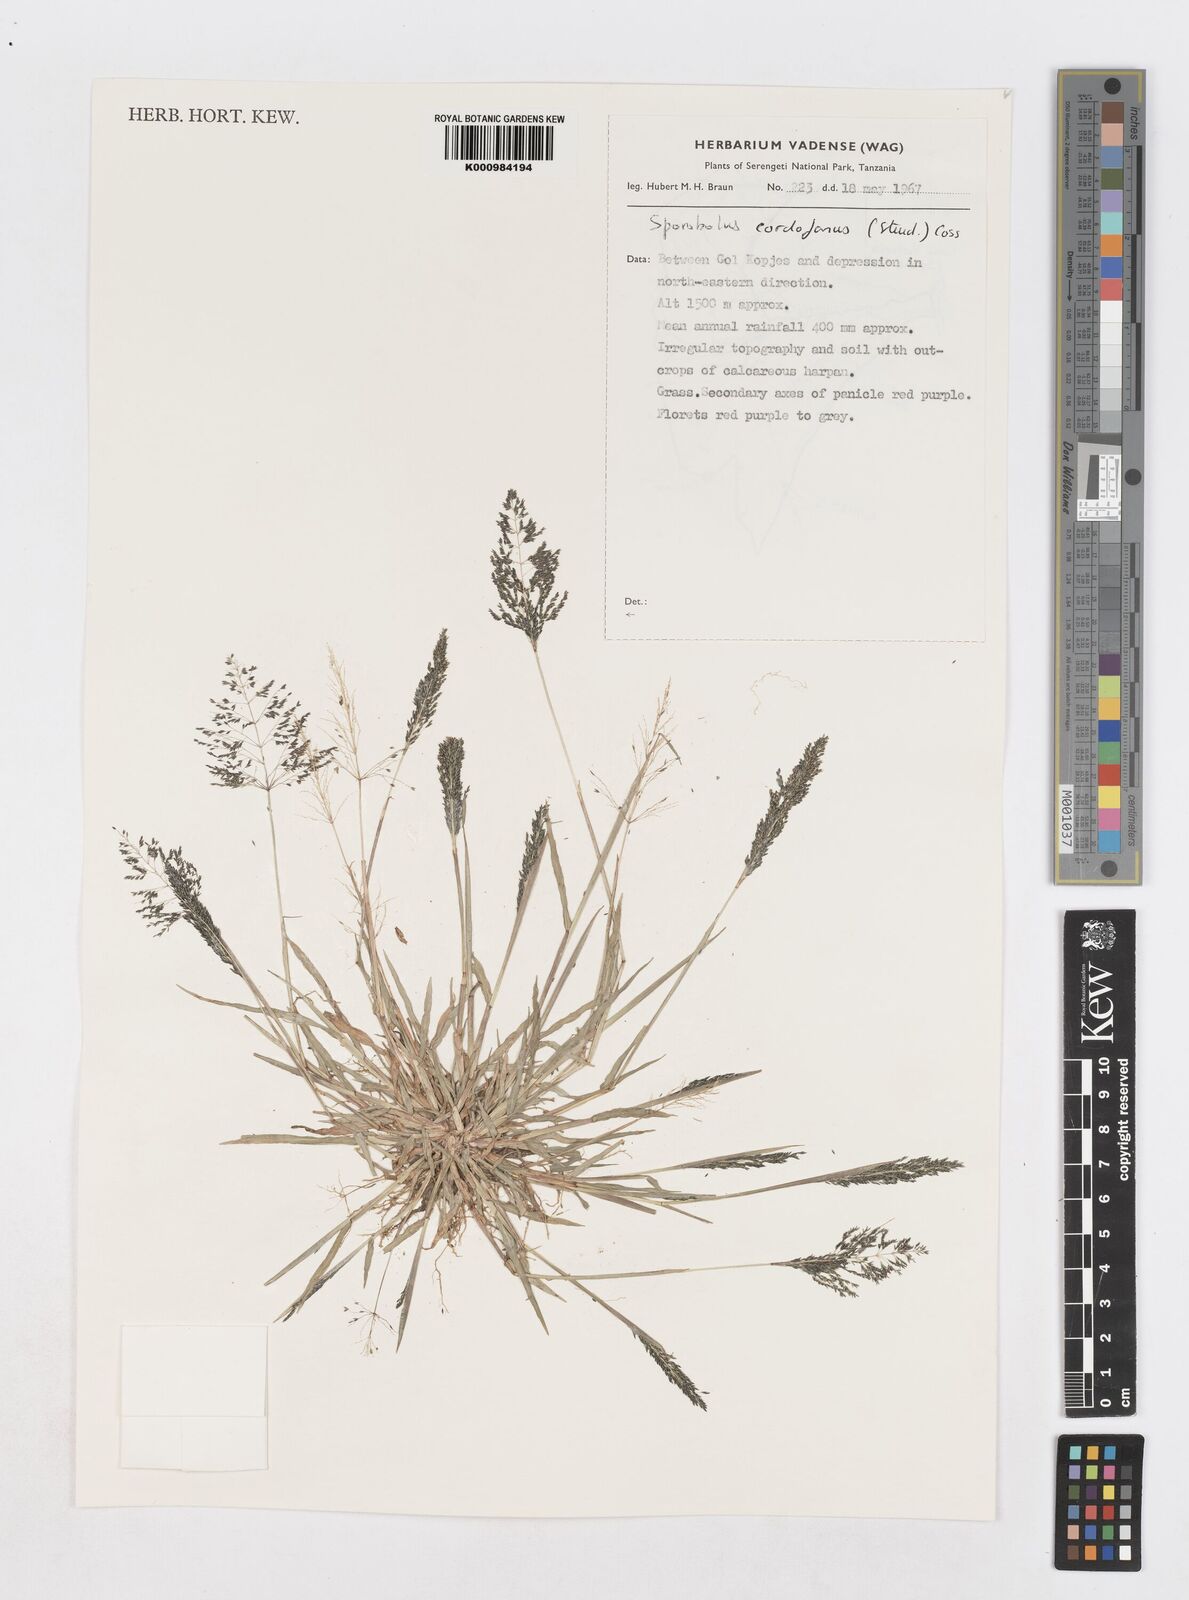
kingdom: Plantae
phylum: Tracheophyta
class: Liliopsida
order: Poales
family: Poaceae
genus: Sporobolus
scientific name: Sporobolus cordofanus
